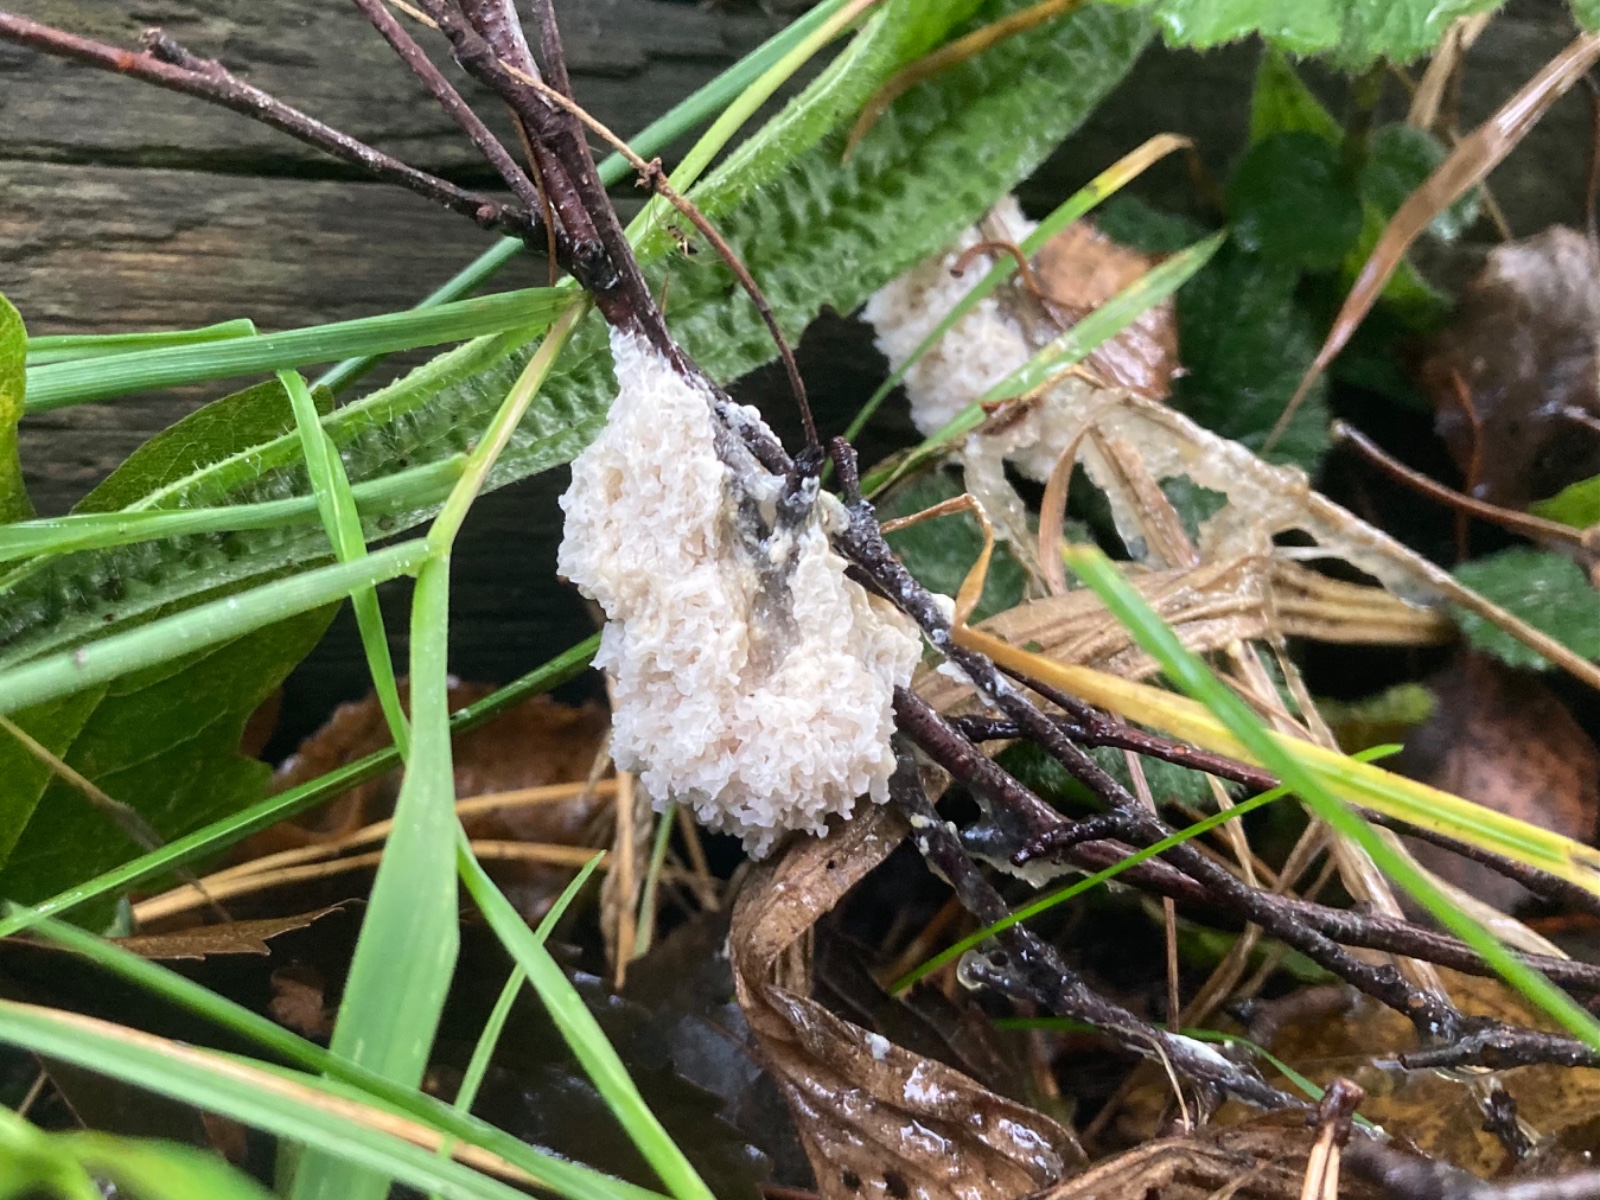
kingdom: Protozoa
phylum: Mycetozoa
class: Myxomycetes
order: Physarales
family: Physaraceae
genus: Didymium
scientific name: Didymium
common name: urteskum
